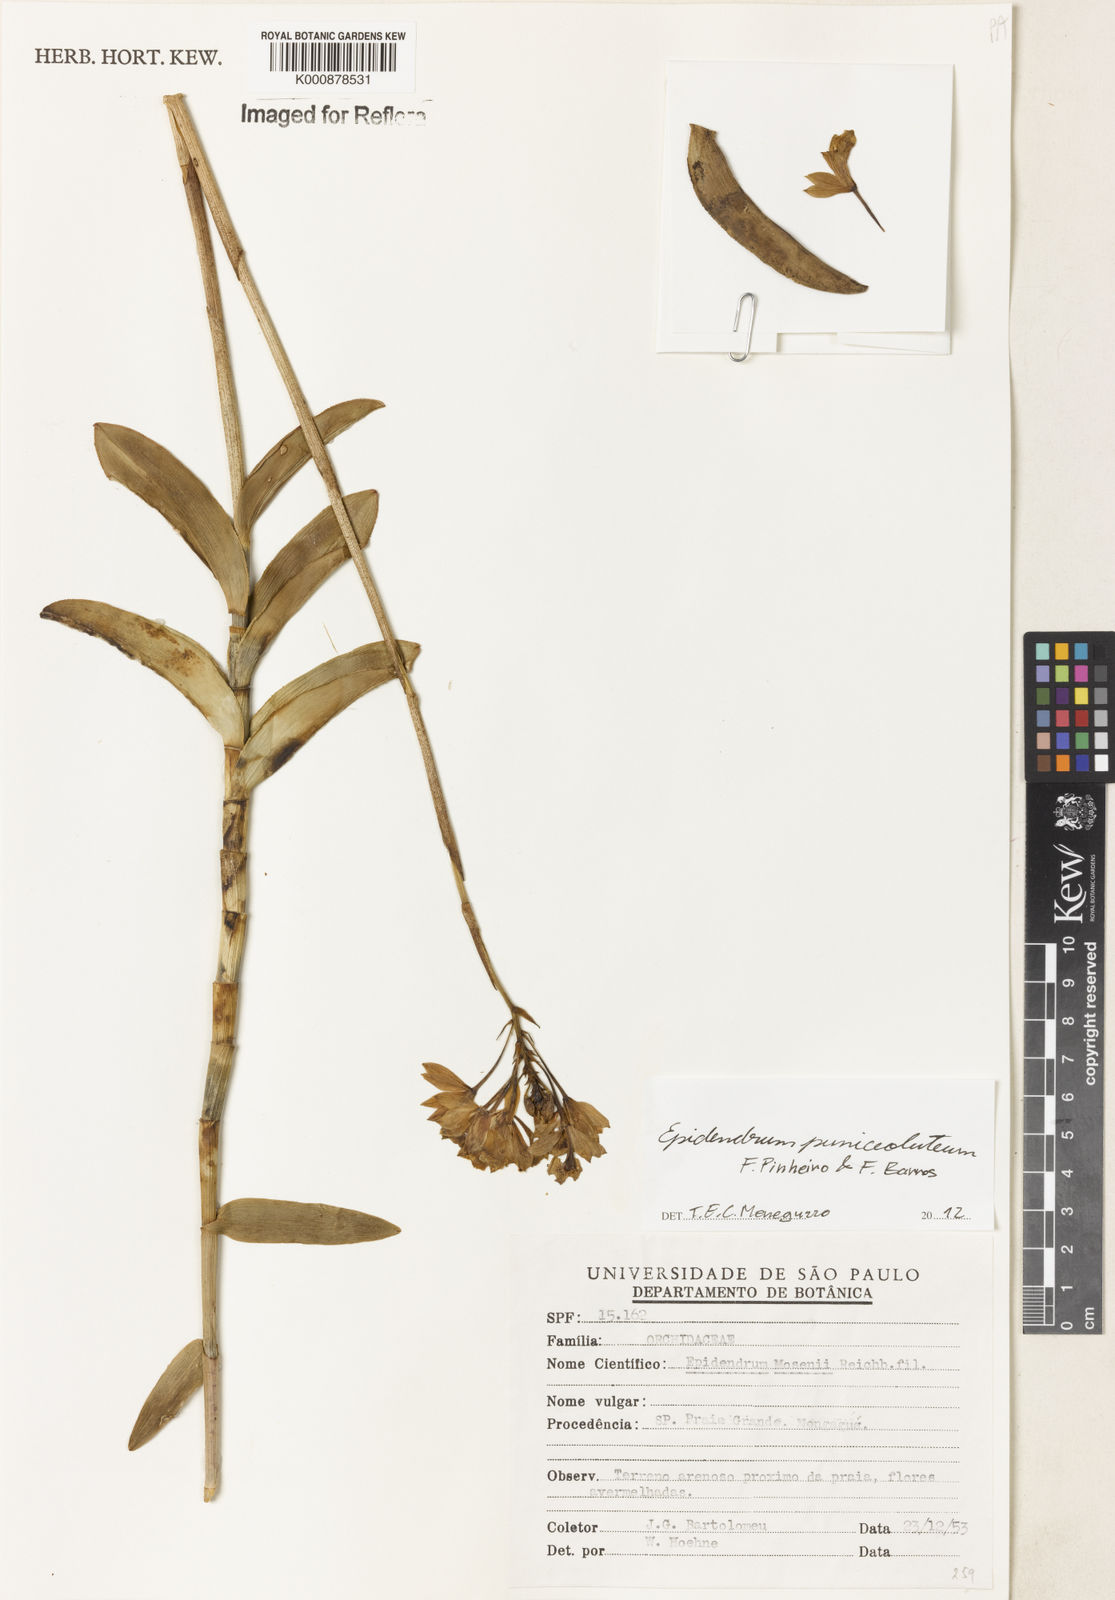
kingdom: Plantae
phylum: Tracheophyta
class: Liliopsida
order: Asparagales
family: Orchidaceae
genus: Epidendrum
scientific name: Epidendrum puniceoluteum
